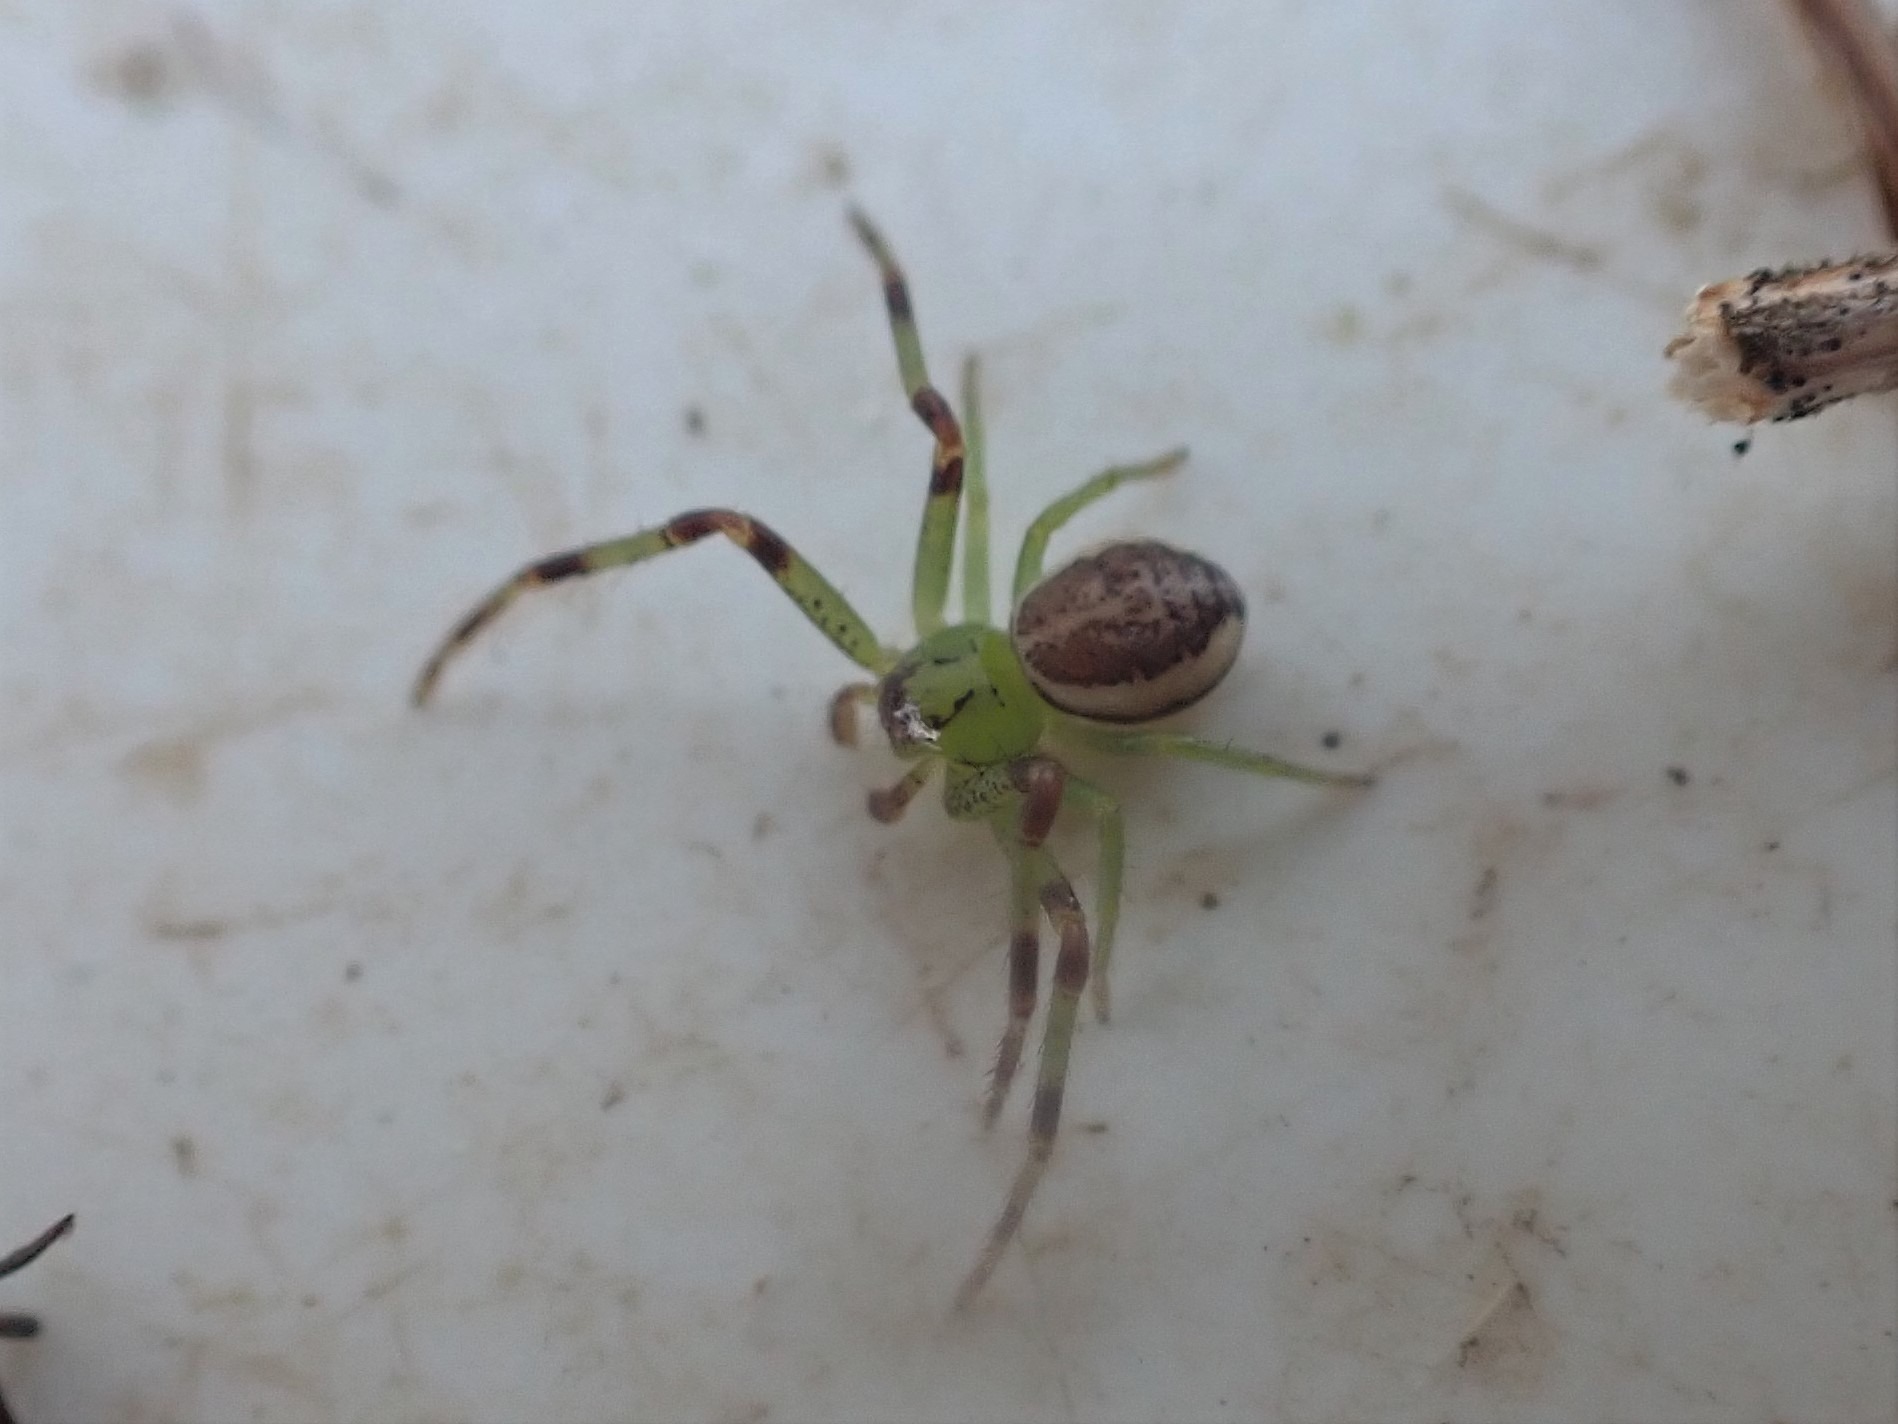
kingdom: Animalia
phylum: Arthropoda
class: Arachnida
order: Araneae
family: Thomisidae
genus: Diaea
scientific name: Diaea dorsata
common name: Grøn krabbeedderkop
